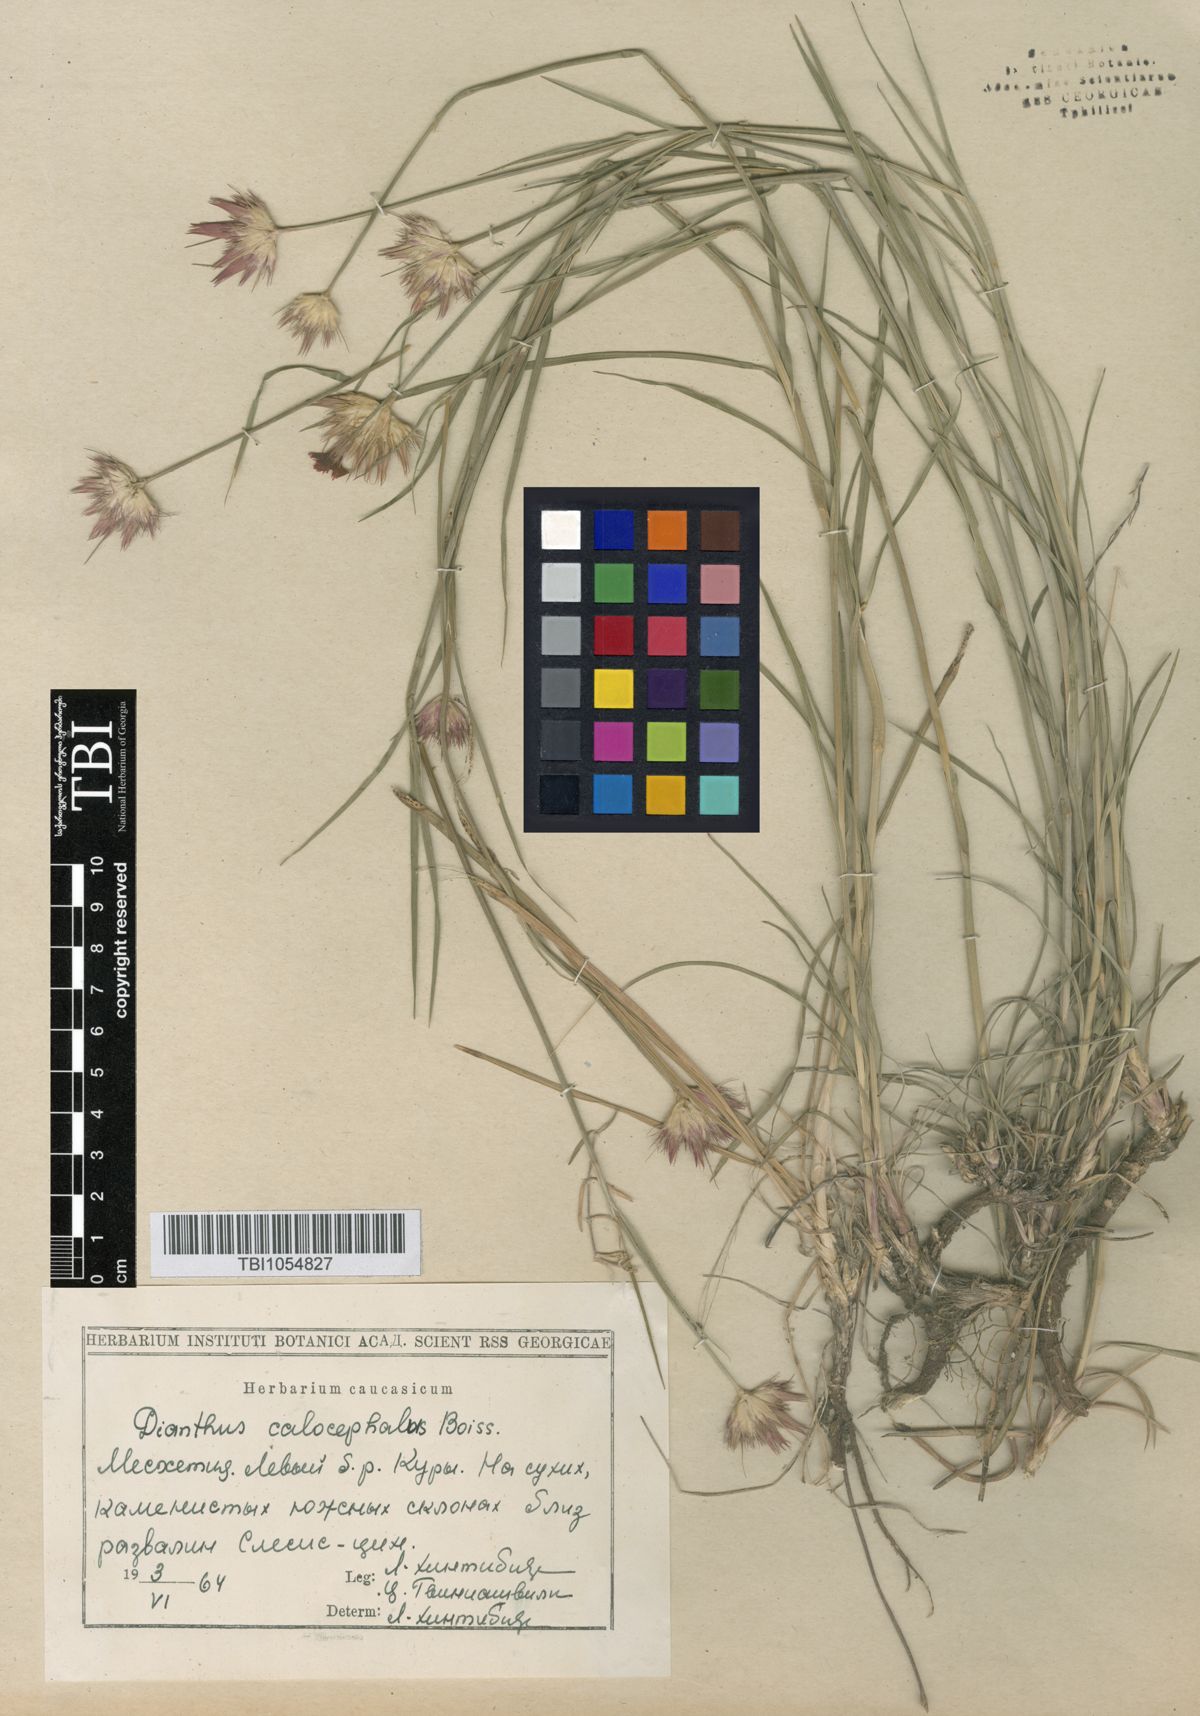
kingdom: Plantae
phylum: Tracheophyta
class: Magnoliopsida
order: Caryophyllales
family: Caryophyllaceae
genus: Dianthus
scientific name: Dianthus cruentus
